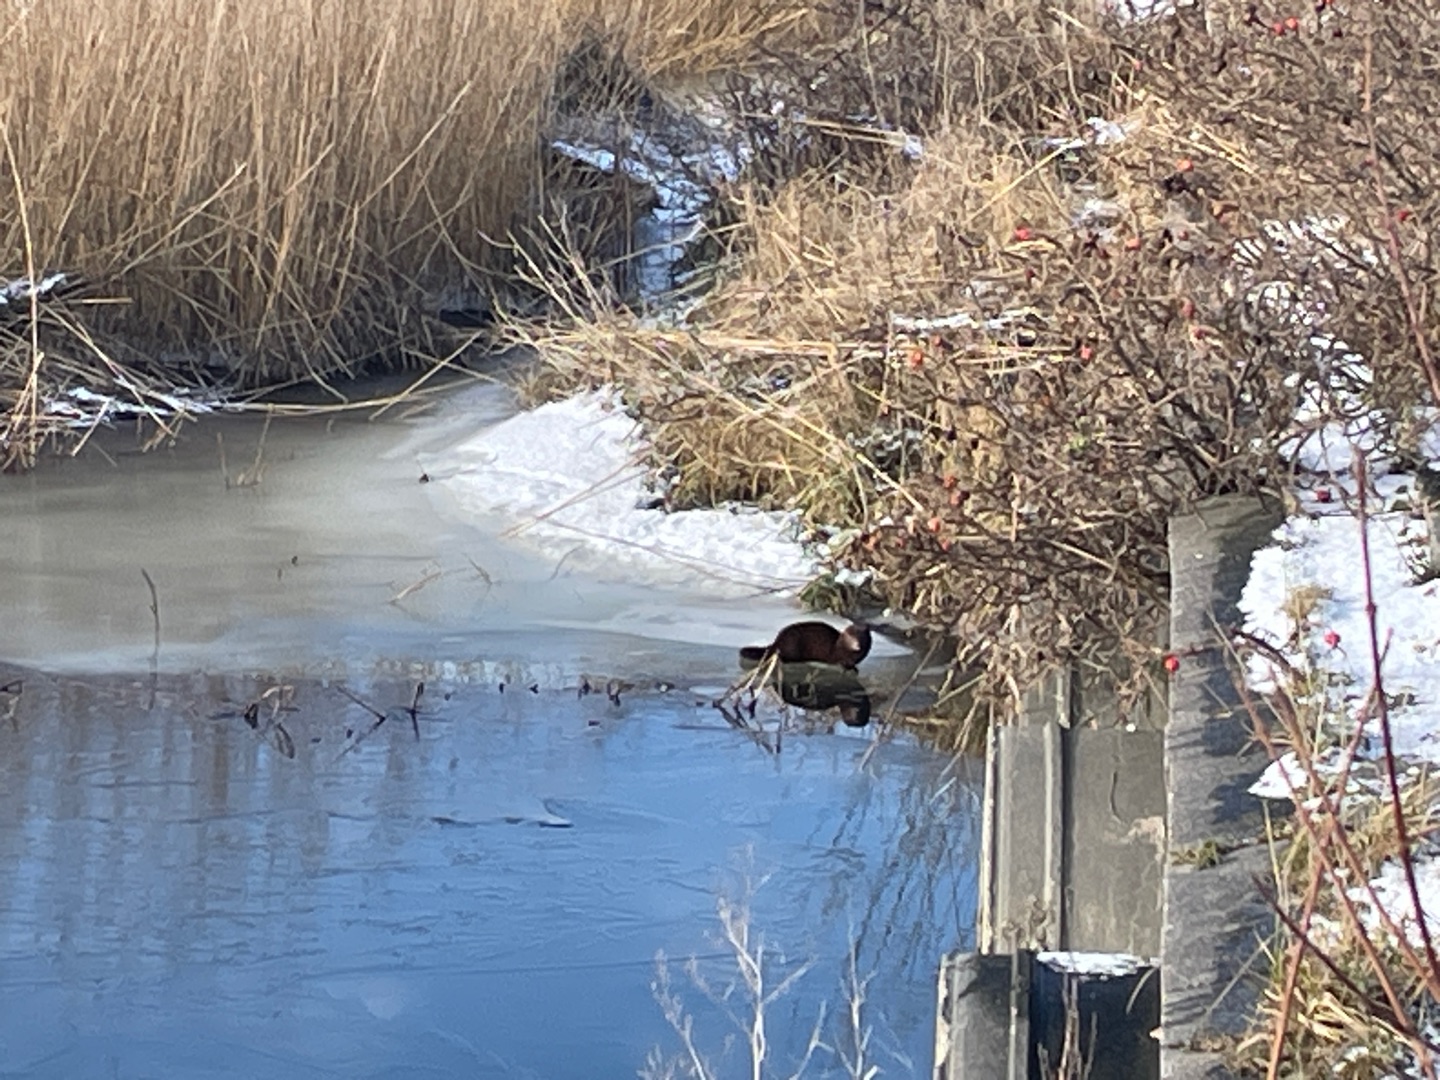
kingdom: Animalia
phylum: Chordata
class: Mammalia
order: Carnivora
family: Mustelidae
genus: Mustela
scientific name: Mustela vison
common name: Mink
